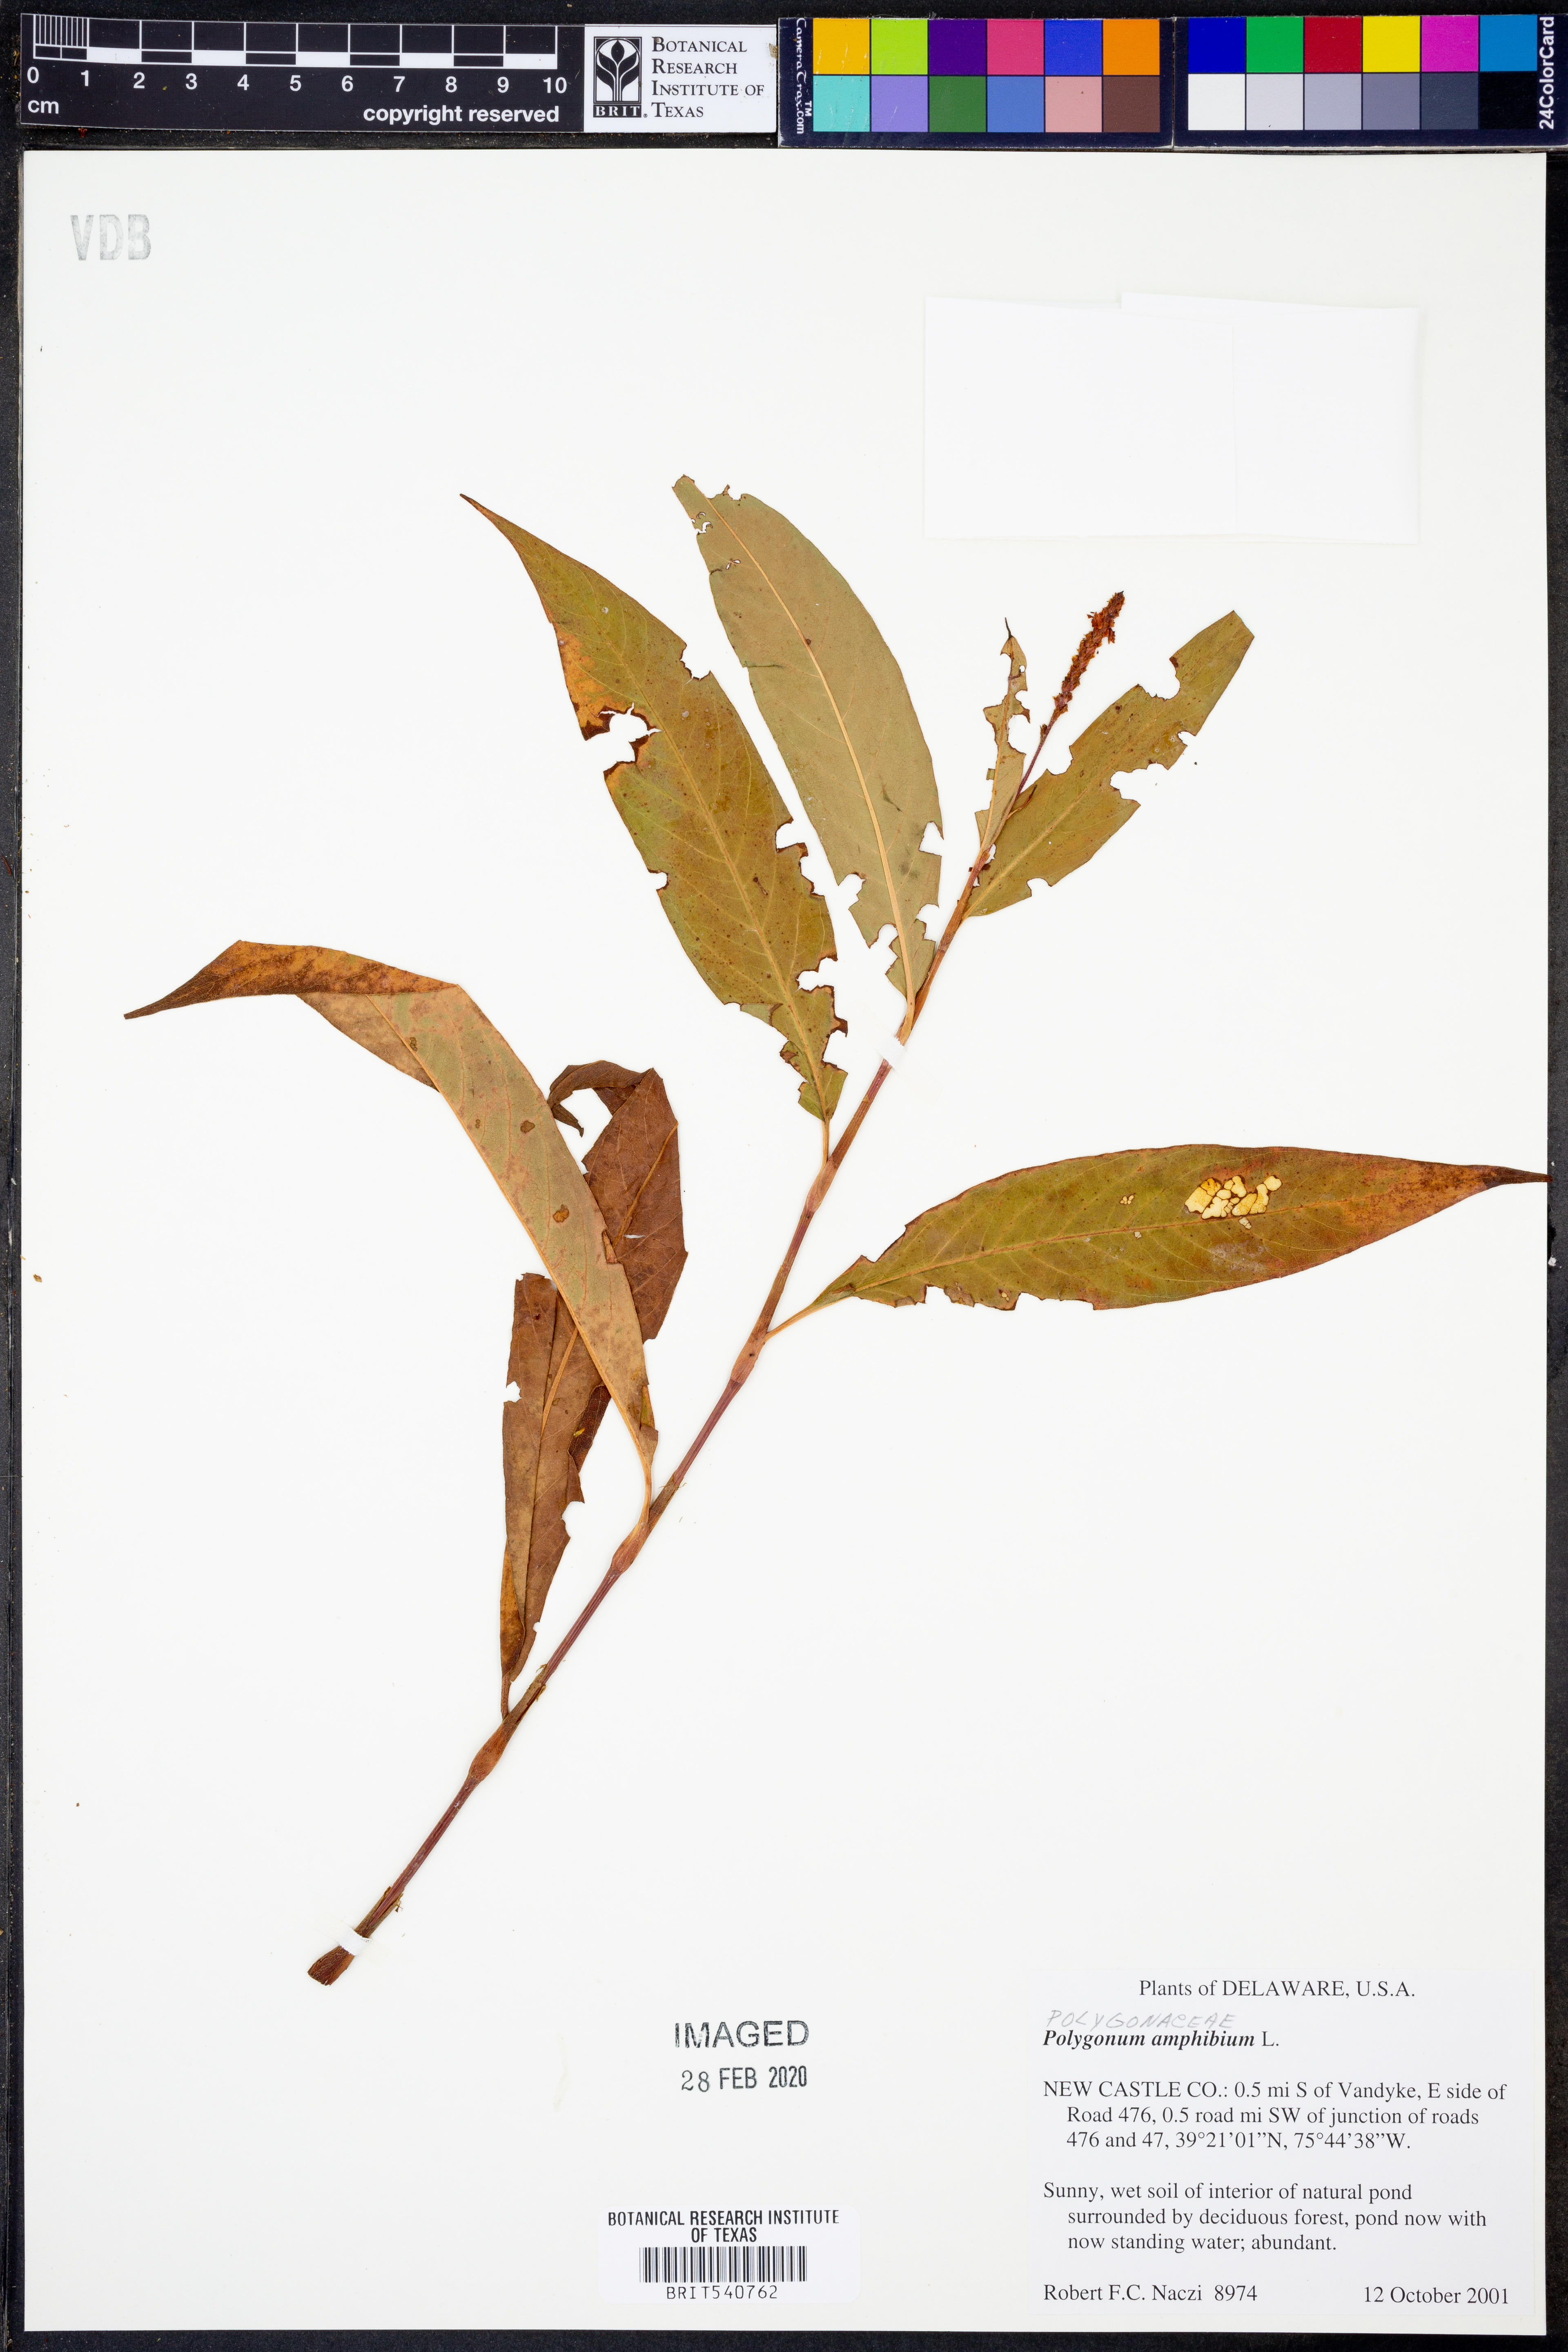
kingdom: Plantae
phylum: Tracheophyta
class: Magnoliopsida
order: Caryophyllales
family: Polygonaceae
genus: Persicaria
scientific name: Persicaria amphibia
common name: Amphibious bistort
